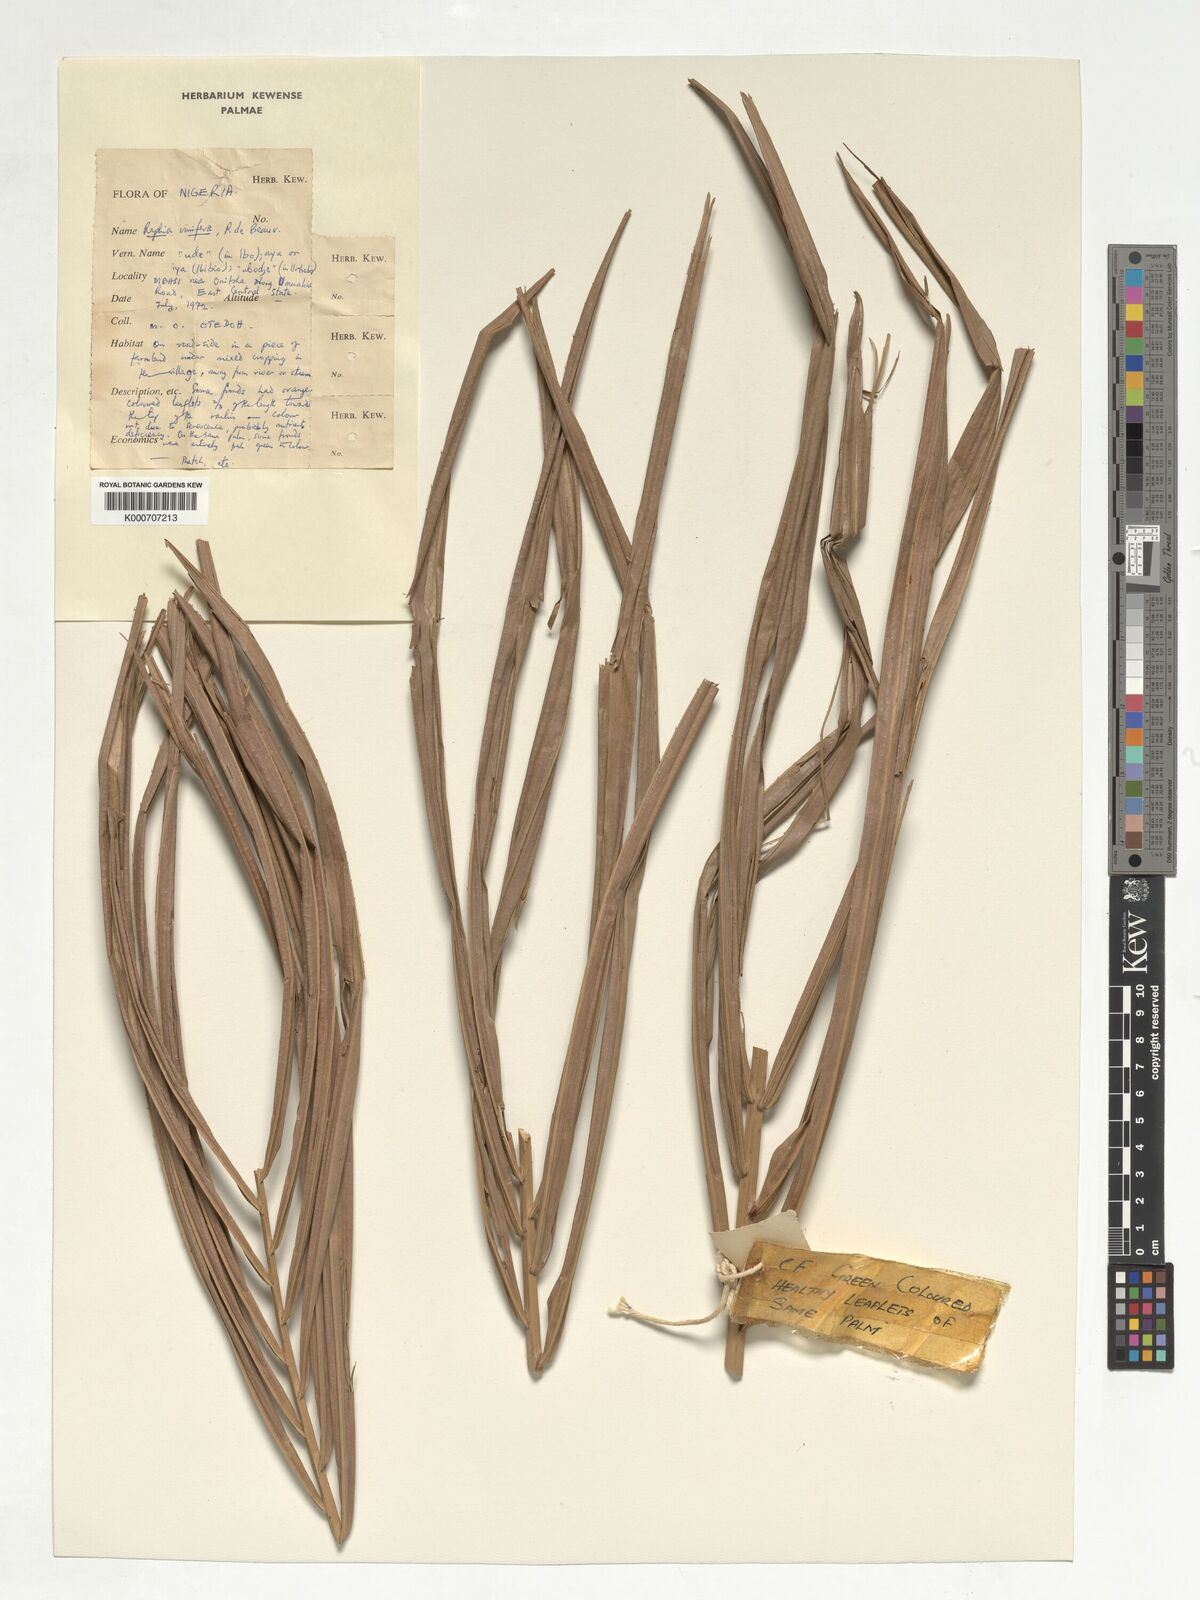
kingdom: Plantae
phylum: Tracheophyta
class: Liliopsida
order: Arecales
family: Arecaceae
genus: Raphia
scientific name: Raphia vinifera
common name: Raphia palm
